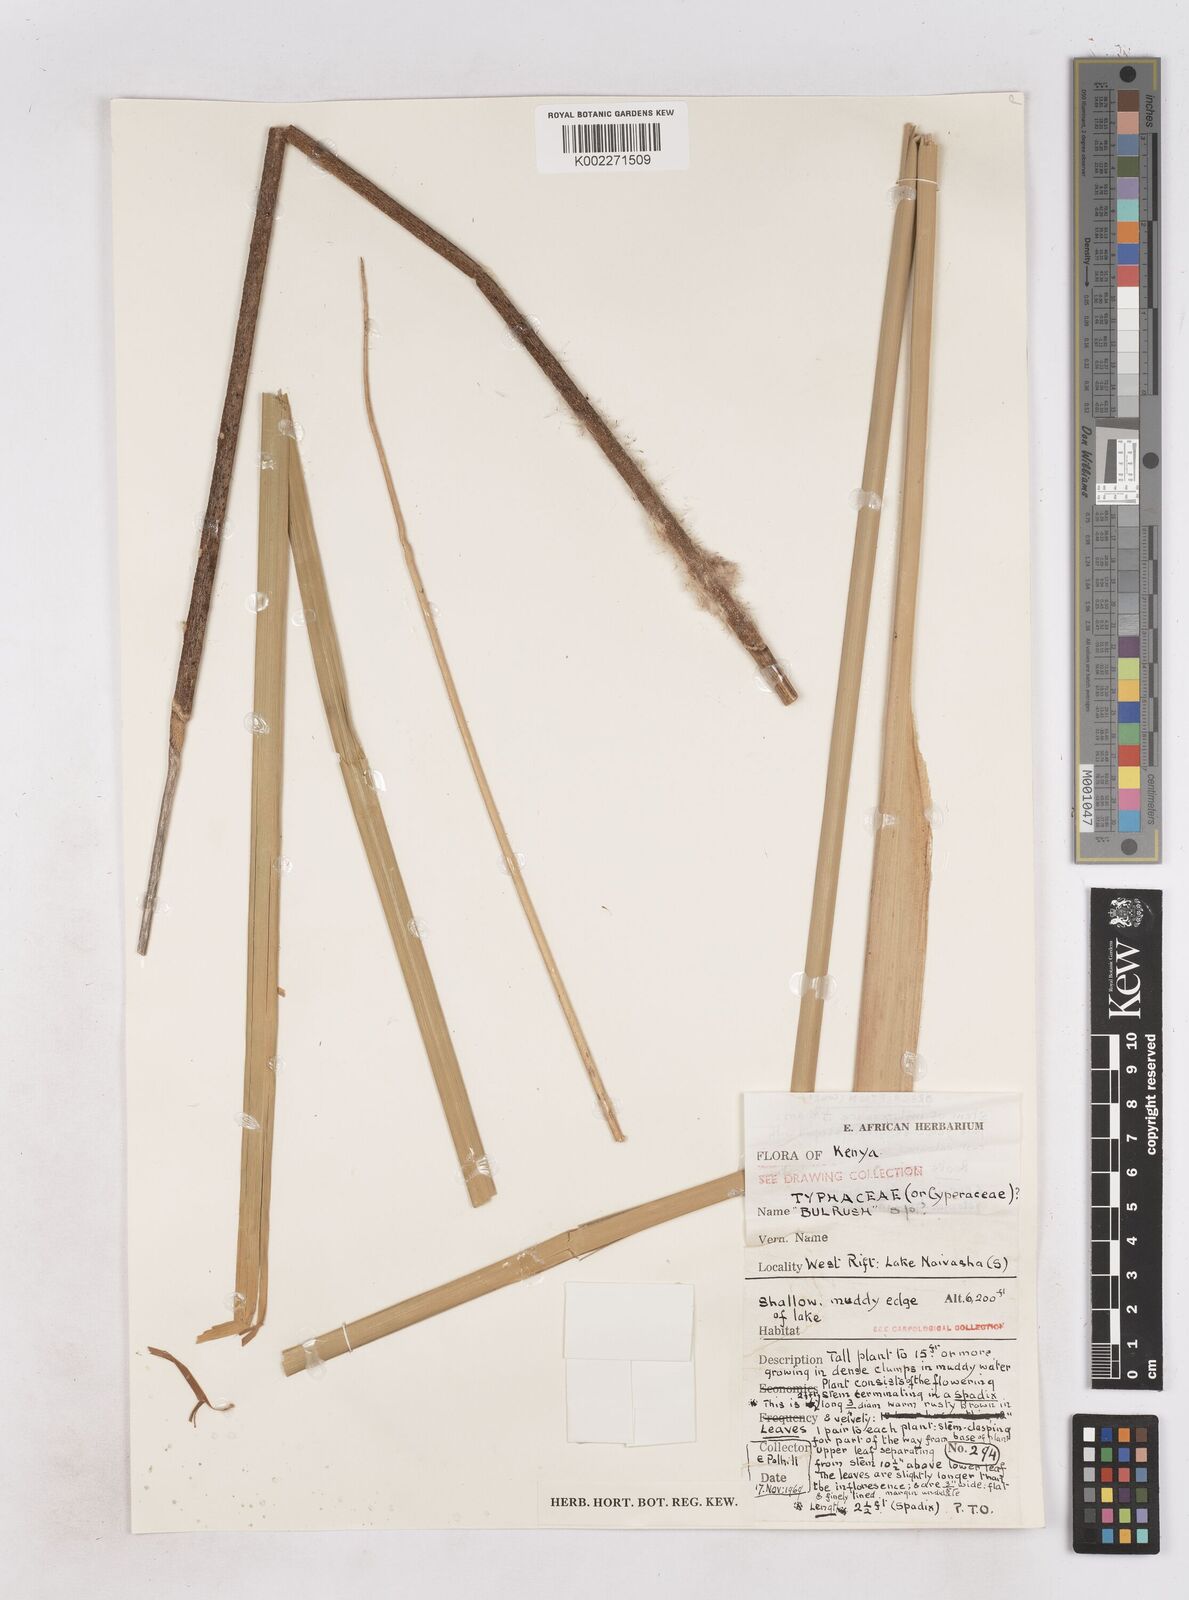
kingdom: Plantae
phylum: Tracheophyta
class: Liliopsida
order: Poales
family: Typhaceae
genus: Typha
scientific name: Typha
